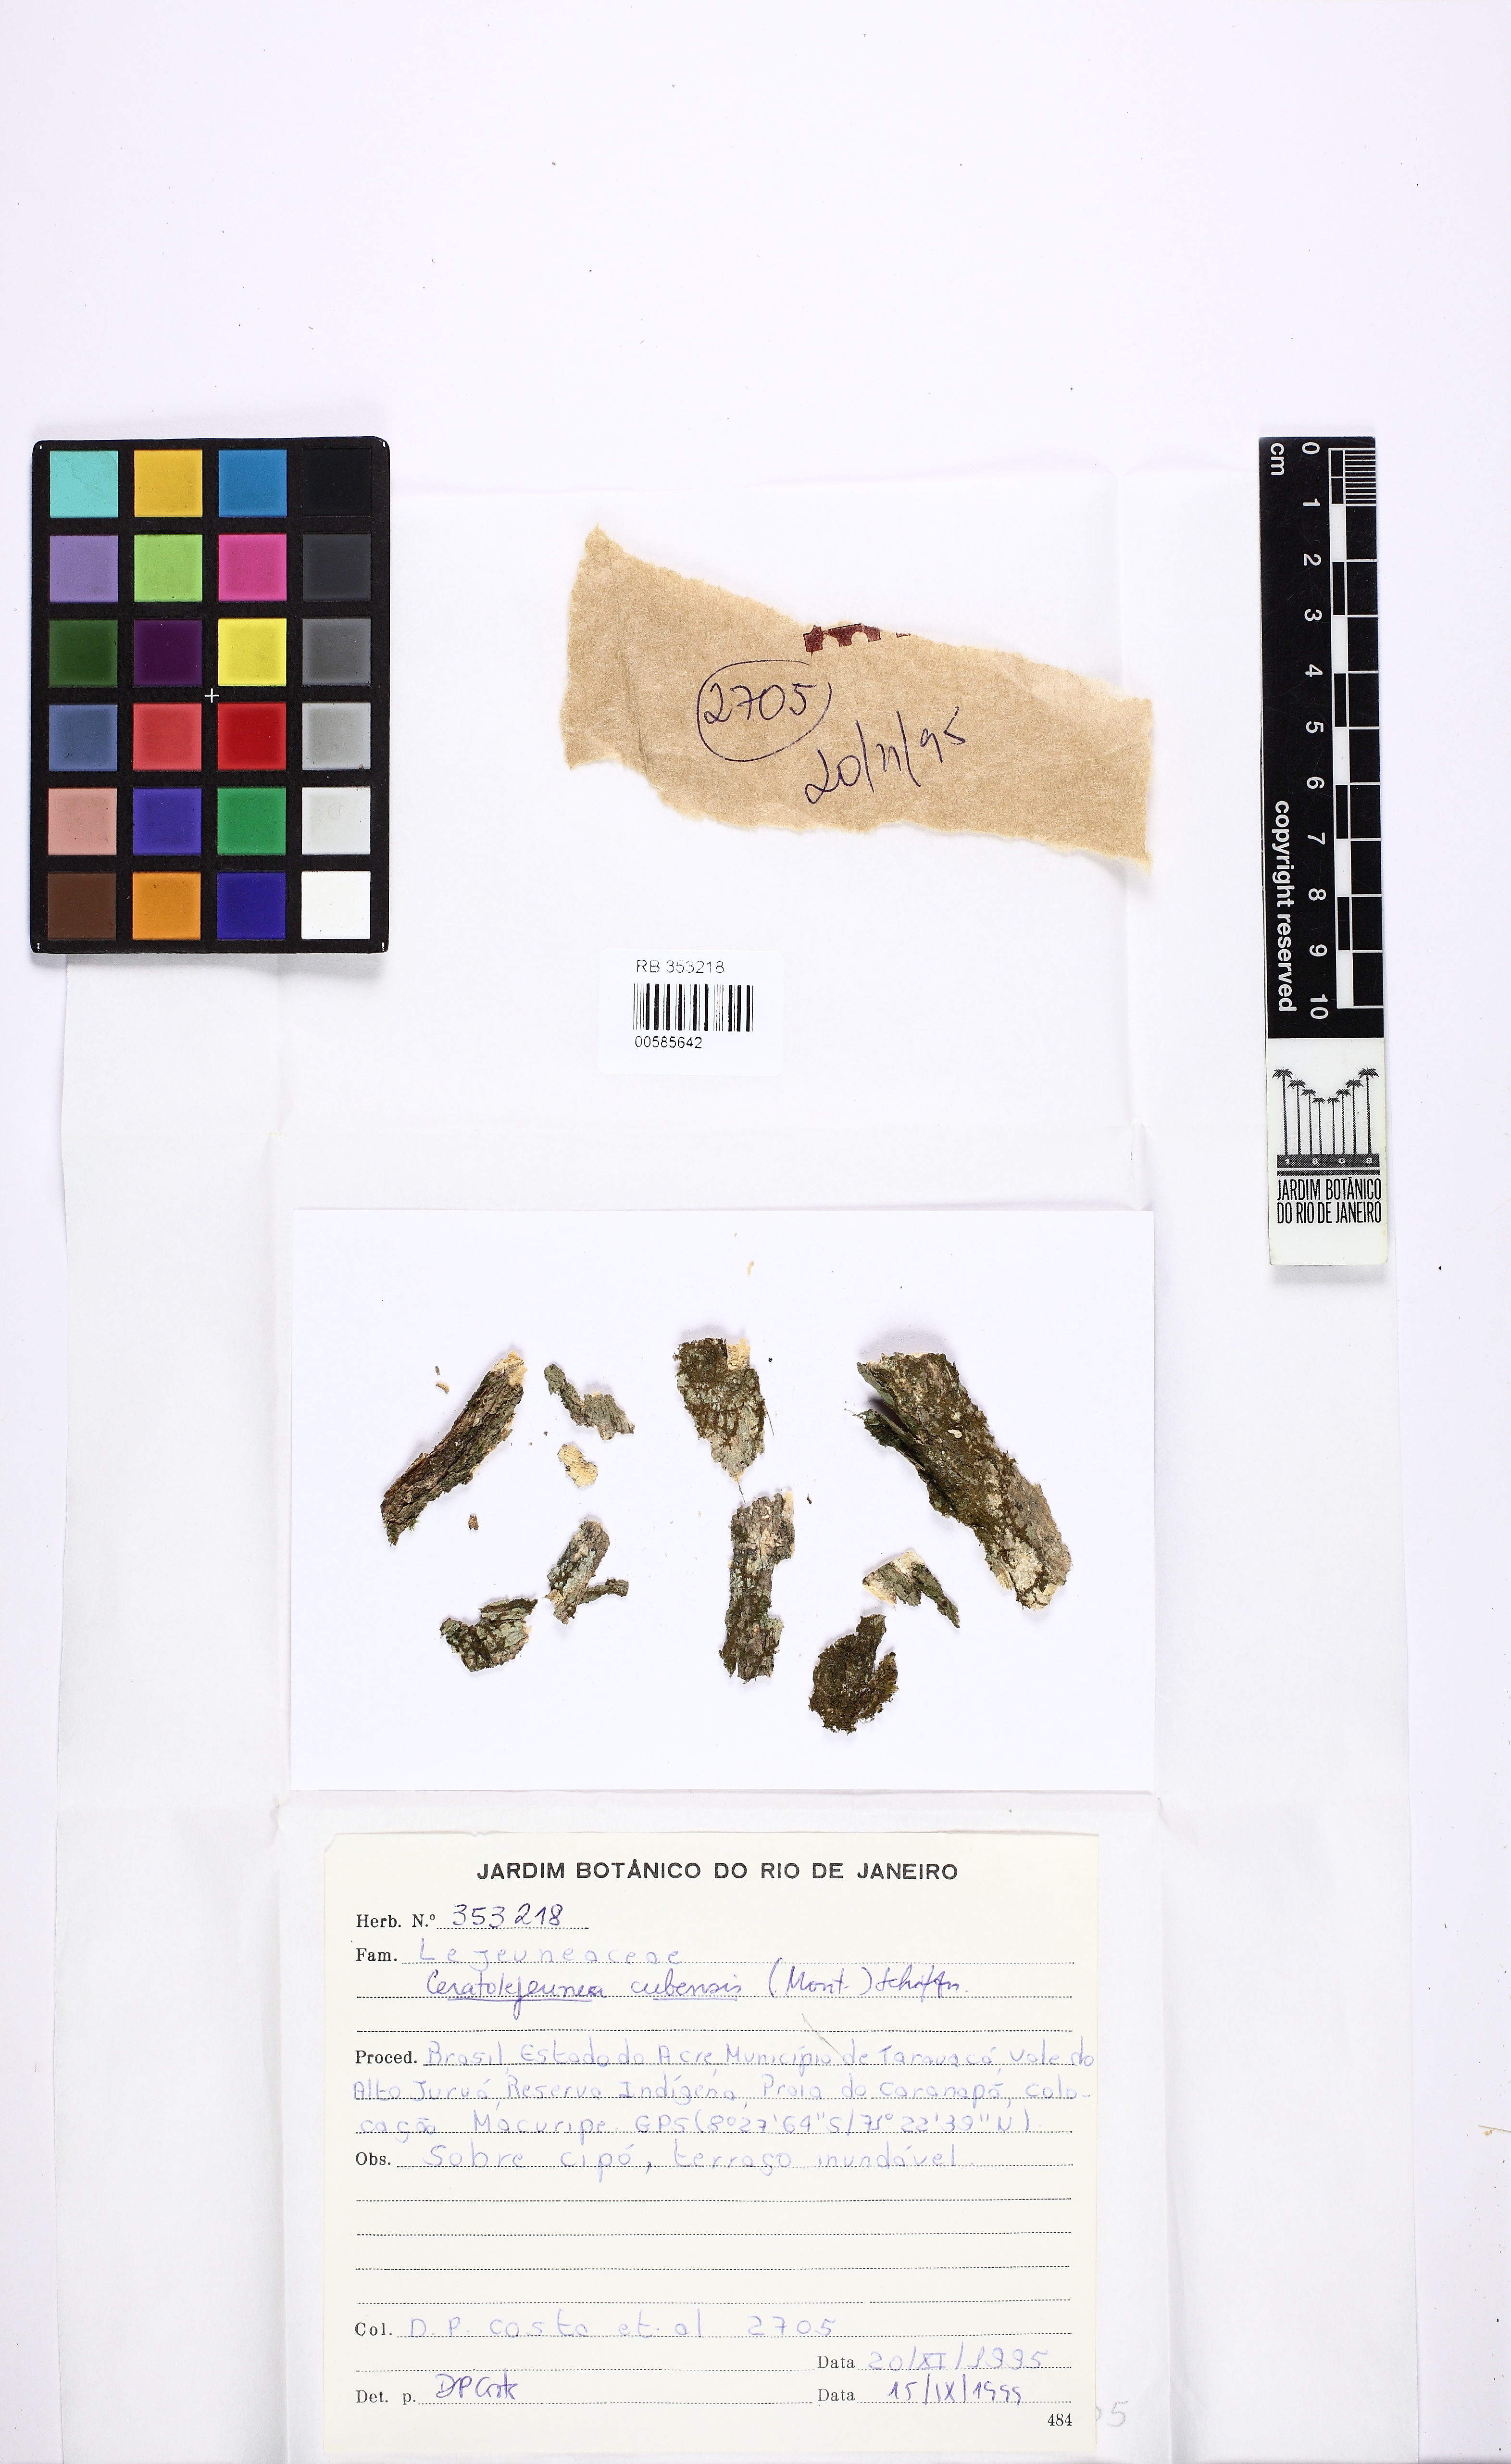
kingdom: Plantae
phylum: Marchantiophyta
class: Jungermanniopsida
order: Porellales
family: Lejeuneaceae
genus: Ceratolejeunea
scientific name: Ceratolejeunea cubensis
